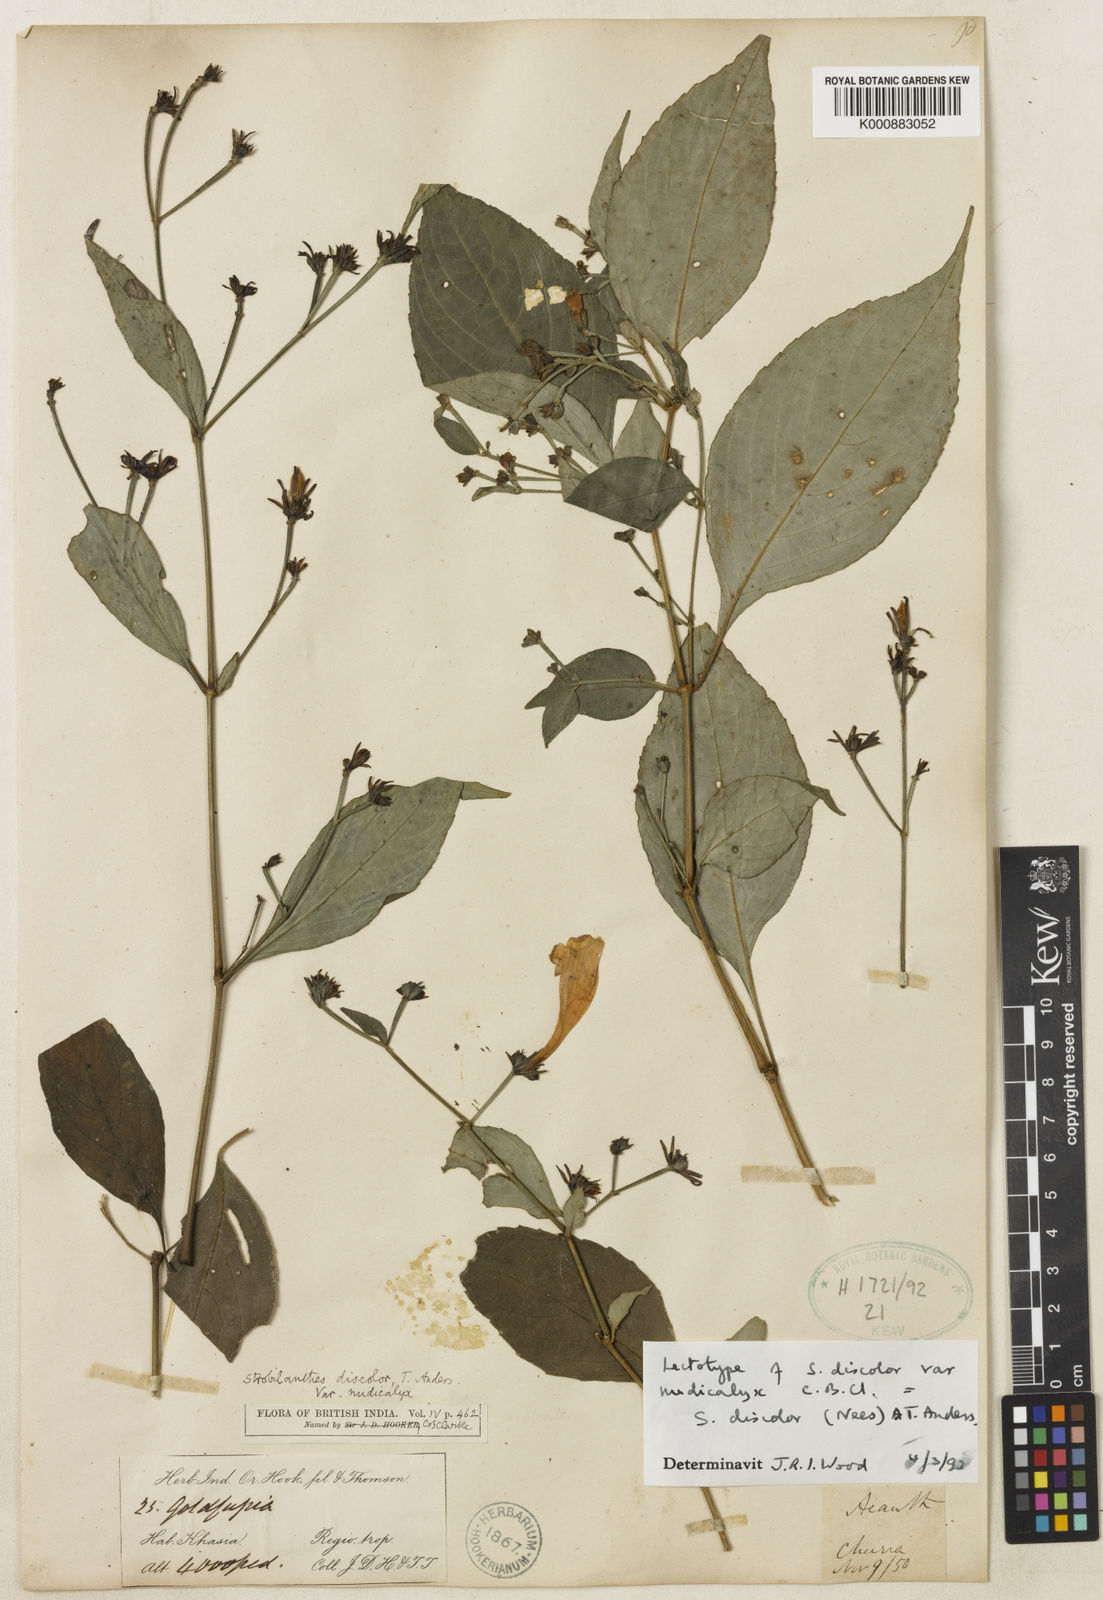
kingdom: Plantae
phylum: Tracheophyta
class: Magnoliopsida
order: Lamiales
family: Acanthaceae
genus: Strobilanthes
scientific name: Strobilanthes discolor
